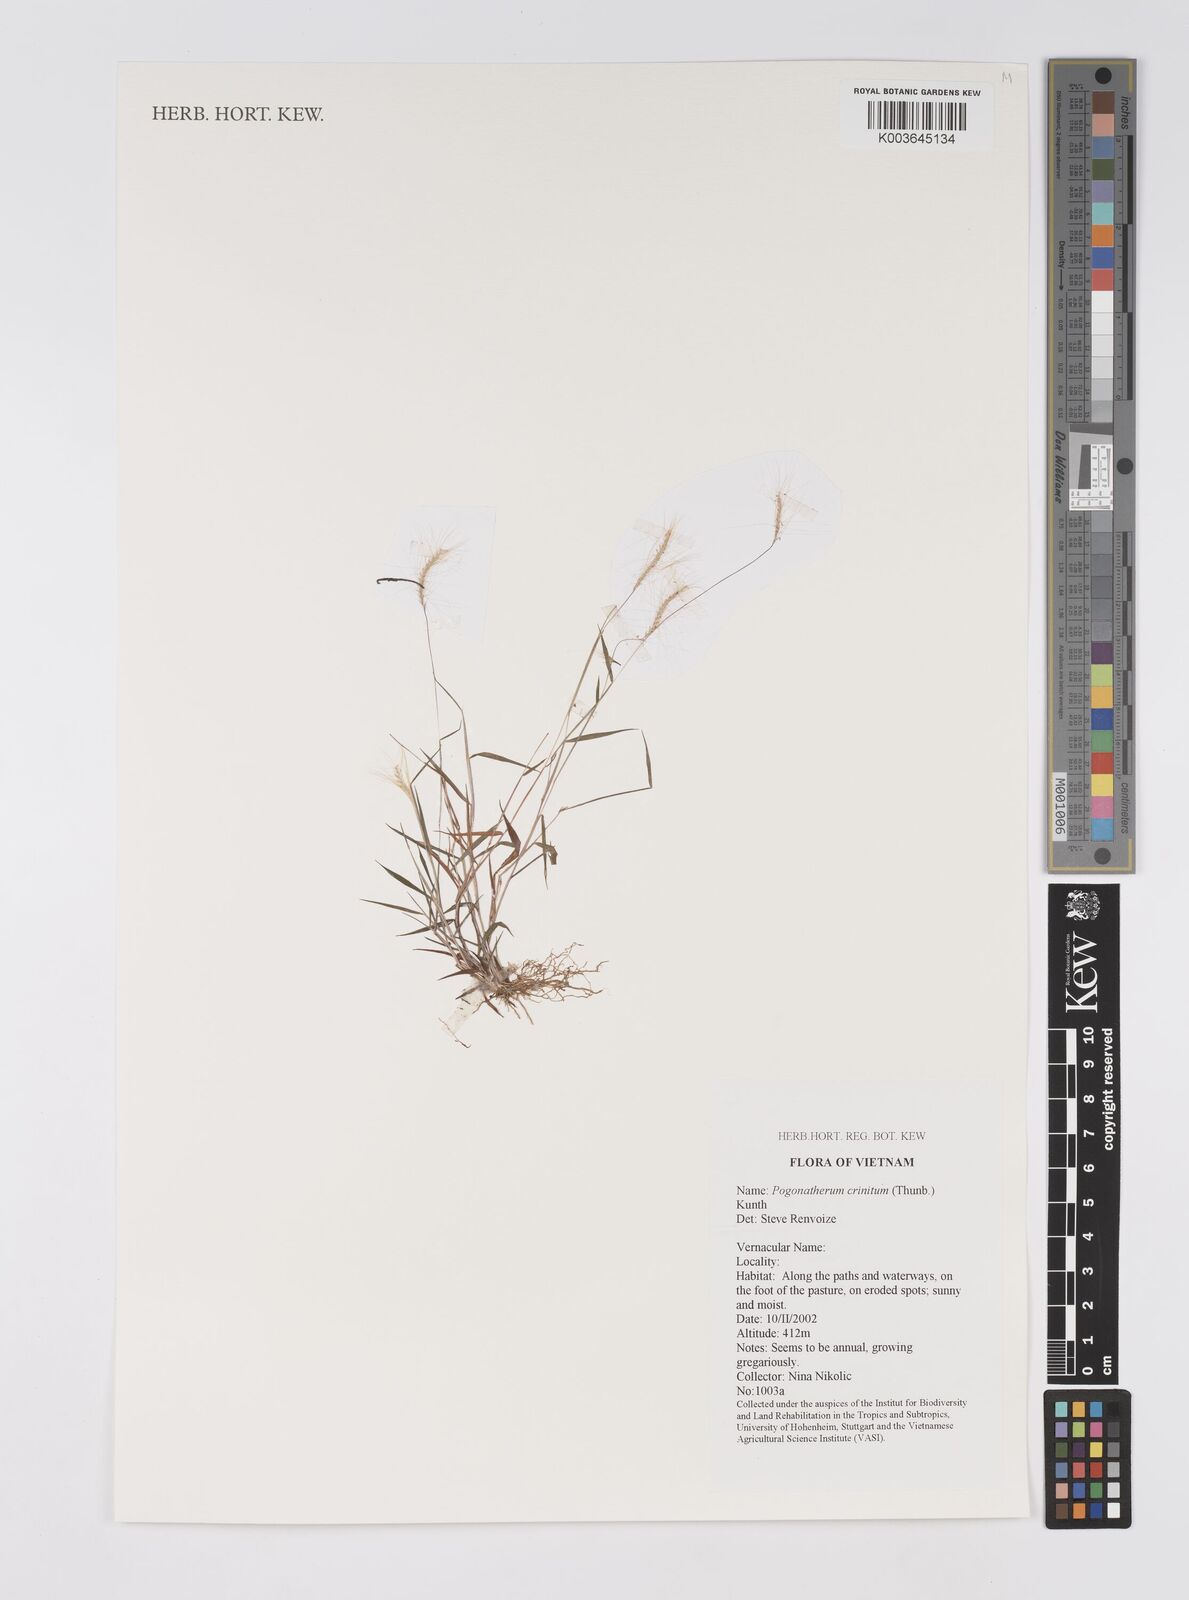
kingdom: Plantae
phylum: Tracheophyta
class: Liliopsida
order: Poales
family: Poaceae
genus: Pogonatherum
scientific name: Pogonatherum crinitum
